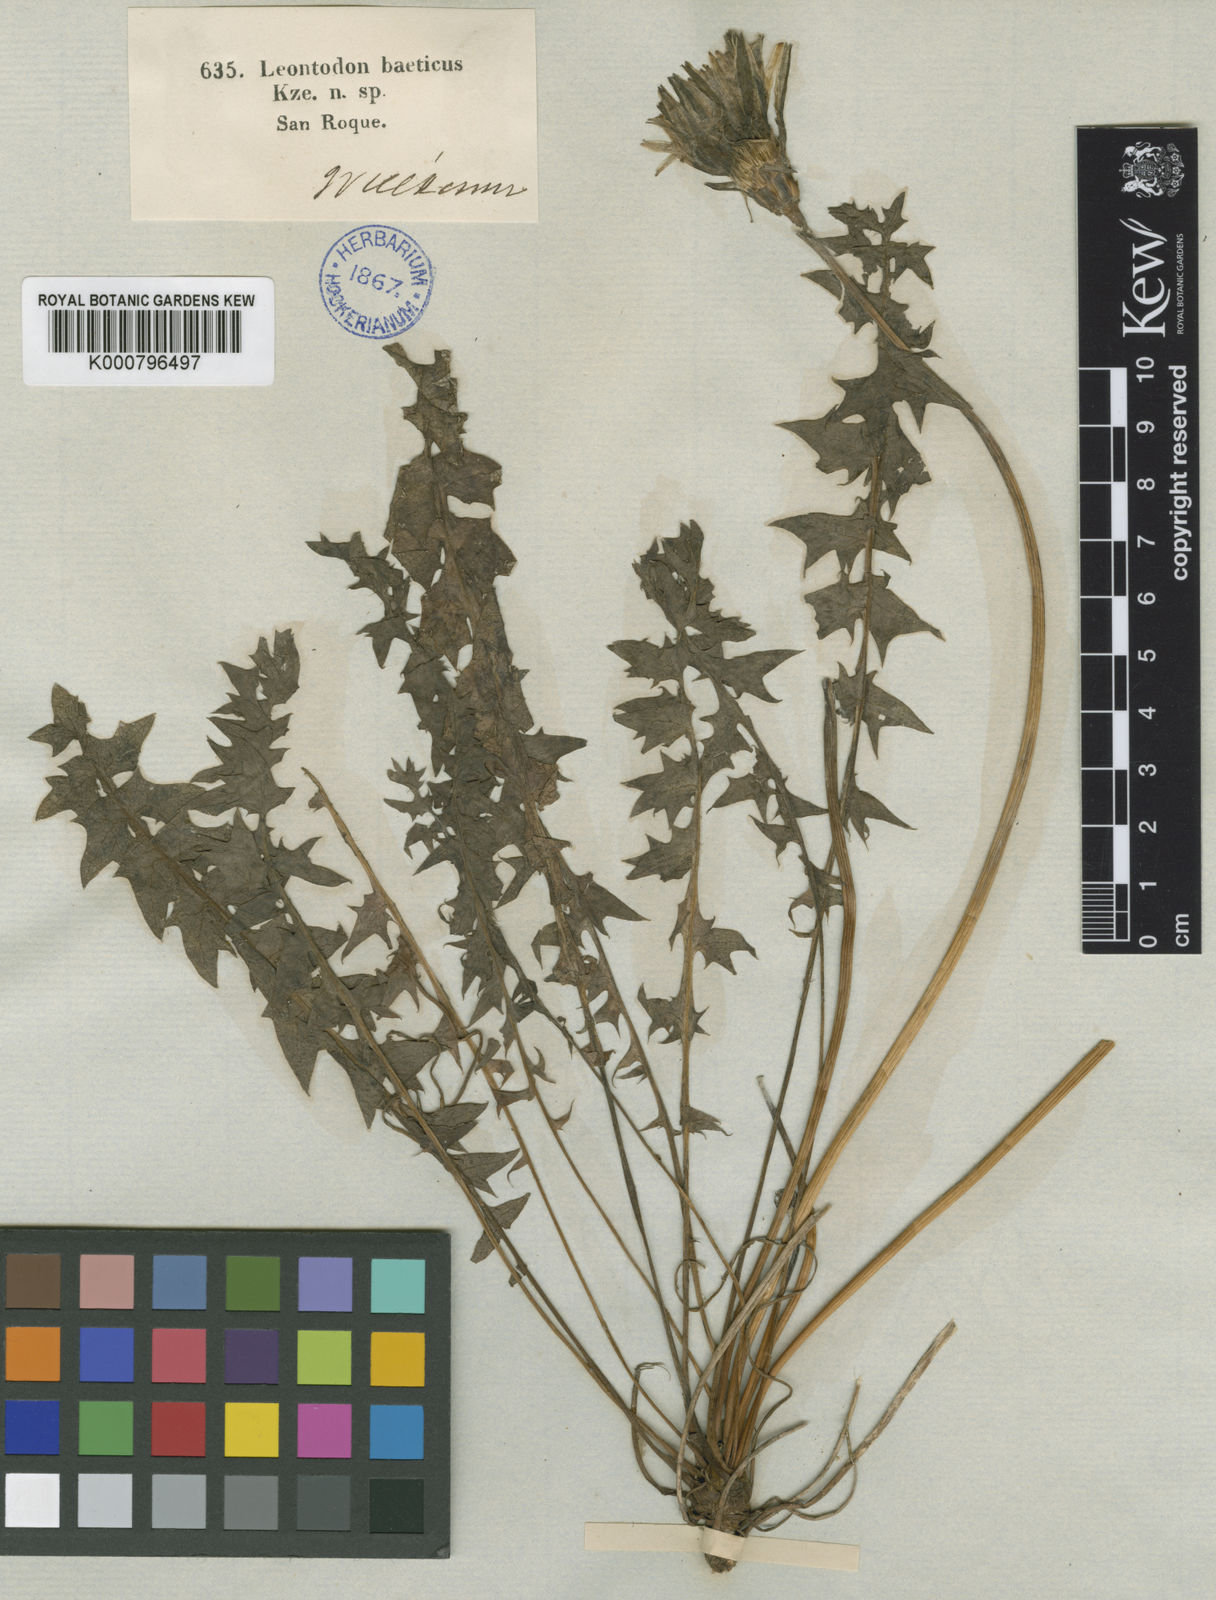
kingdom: Plantae
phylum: Tracheophyta
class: Magnoliopsida
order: Asterales
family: Asteraceae
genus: Leontodon
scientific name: Leontodon
